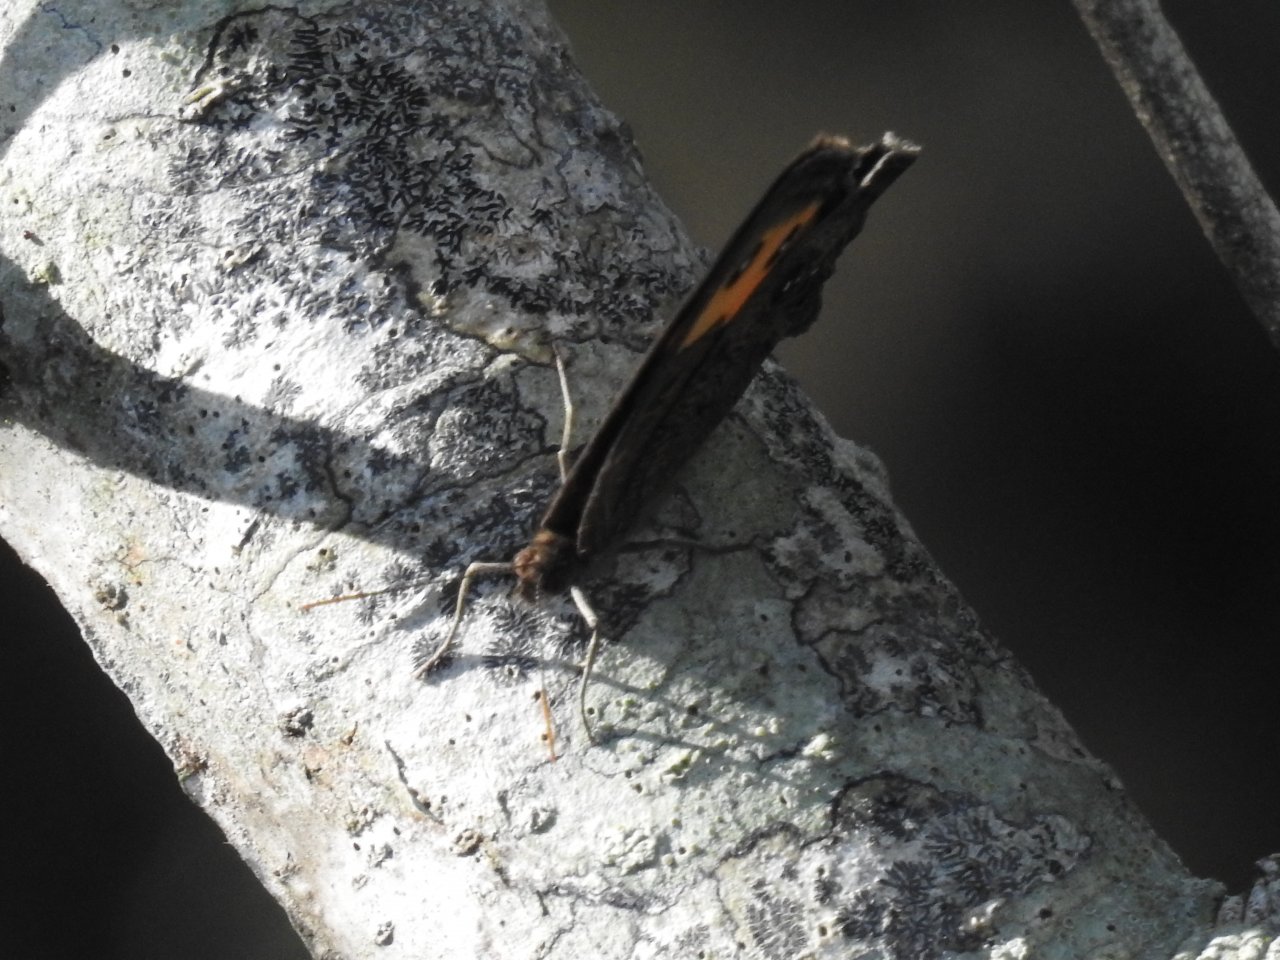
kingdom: Animalia
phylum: Arthropoda
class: Insecta
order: Lepidoptera
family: Nymphalidae
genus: Cercyonis
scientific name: Cercyonis pegala
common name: Common Wood-Nymph
